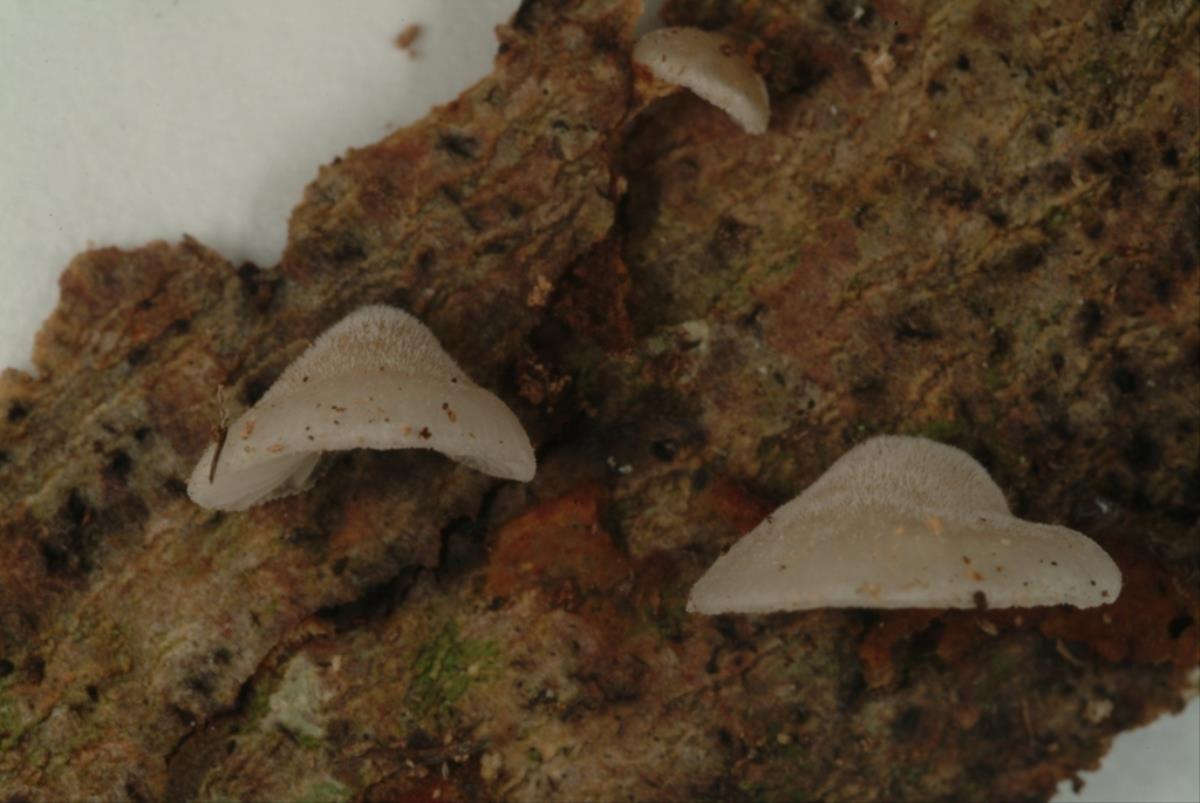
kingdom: Fungi
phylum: Basidiomycota
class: Agaricomycetes
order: Agaricales
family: Pleurotaceae
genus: Hohenbuehelia
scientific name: Hohenbuehelia
